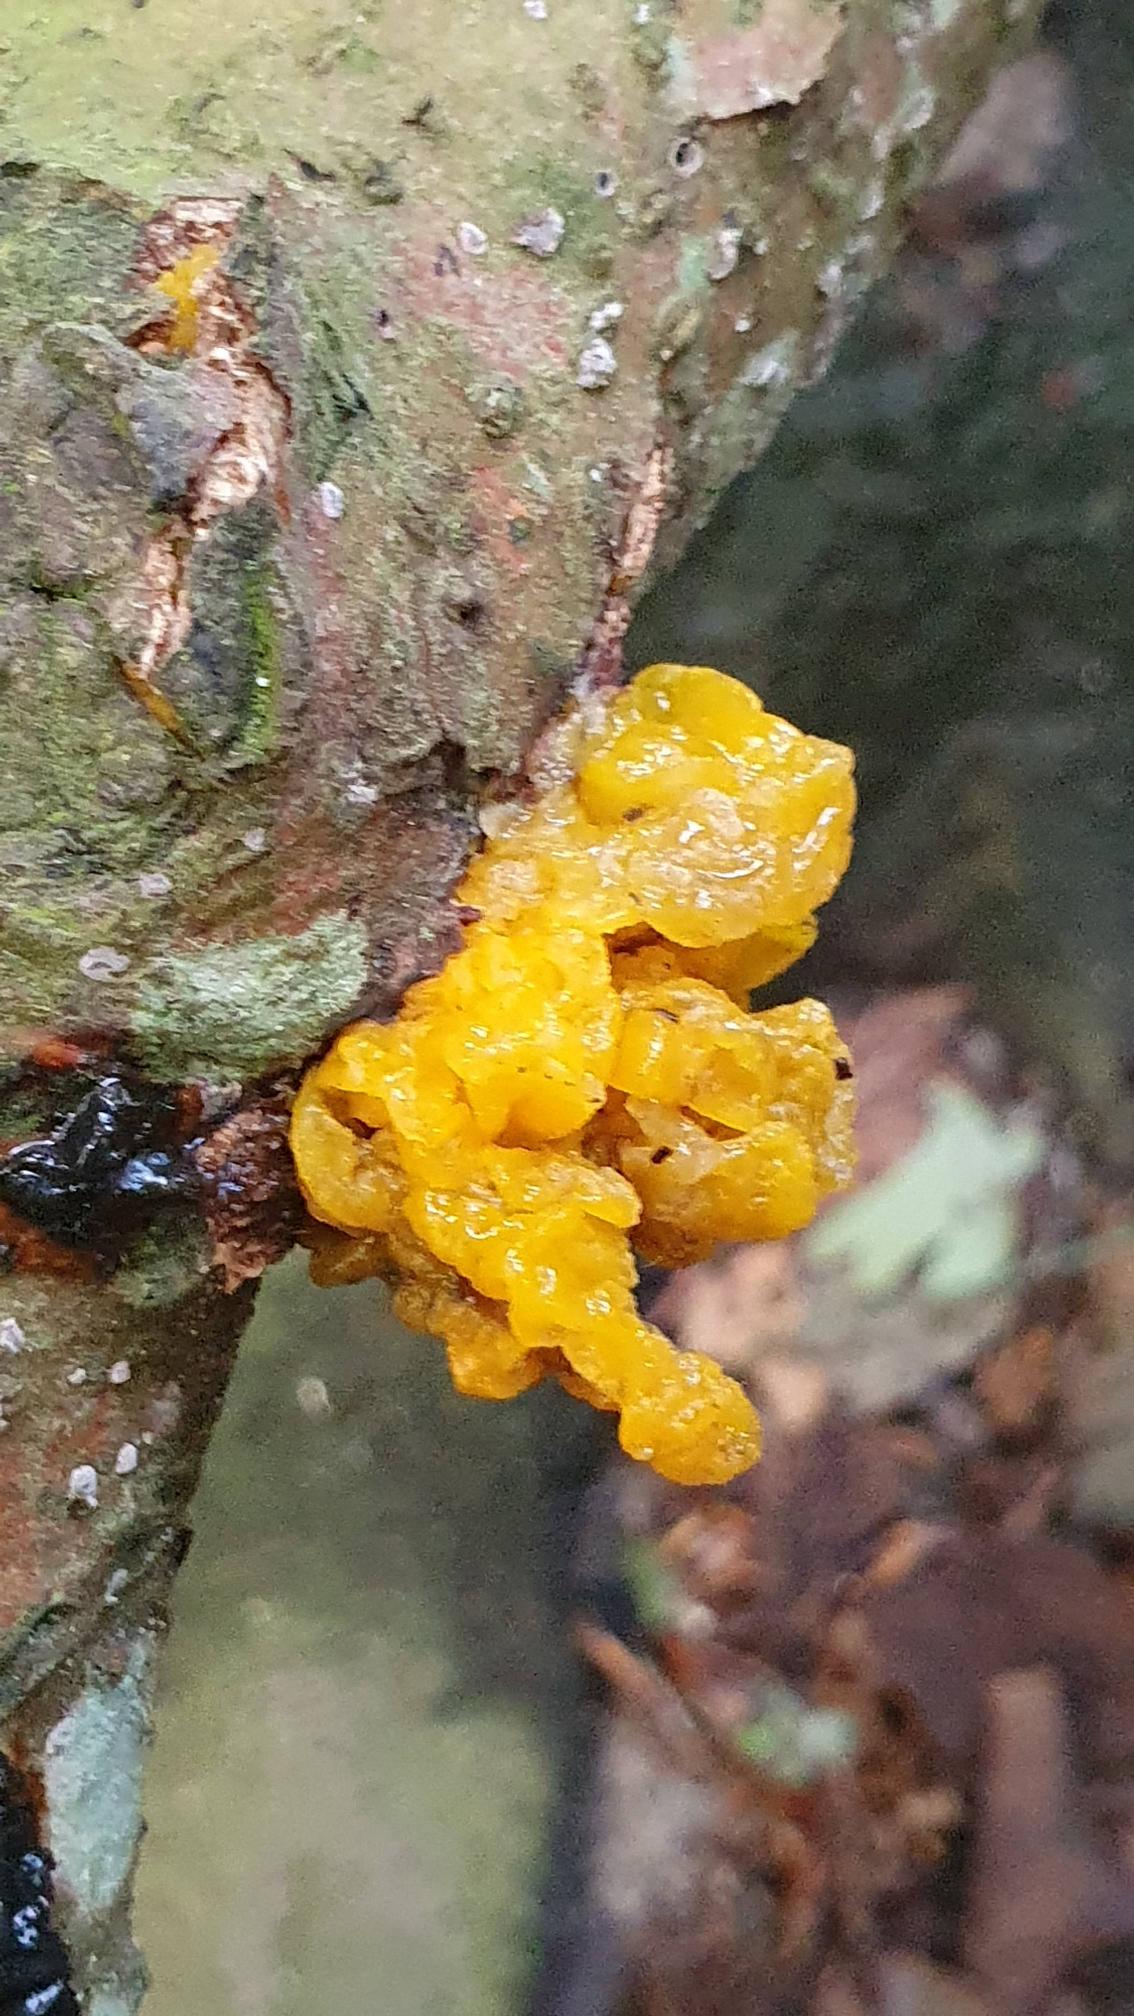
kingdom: Fungi
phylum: Basidiomycota
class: Tremellomycetes
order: Tremellales
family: Tremellaceae
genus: Tremella
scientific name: Tremella mesenterica
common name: Gul bævresvamp
